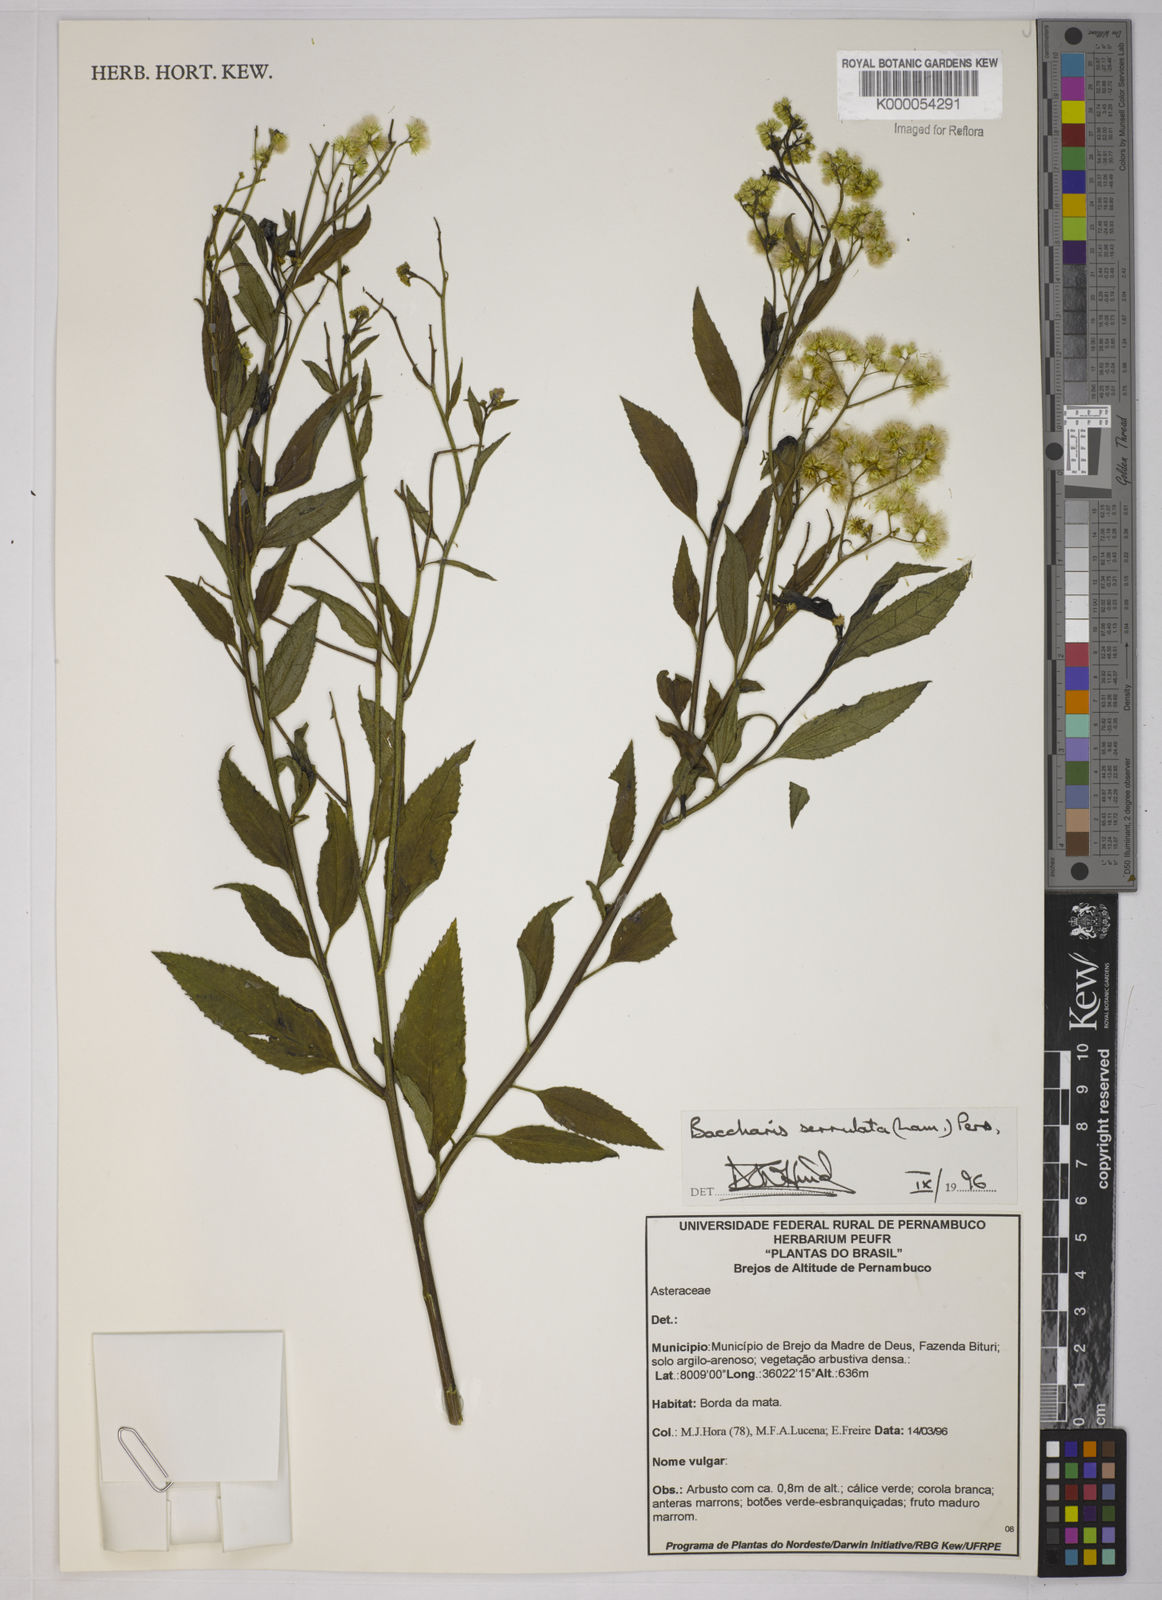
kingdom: Plantae
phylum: Tracheophyta
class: Magnoliopsida
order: Asterales
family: Asteraceae
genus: Baccharis
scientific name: Baccharis serrulata
